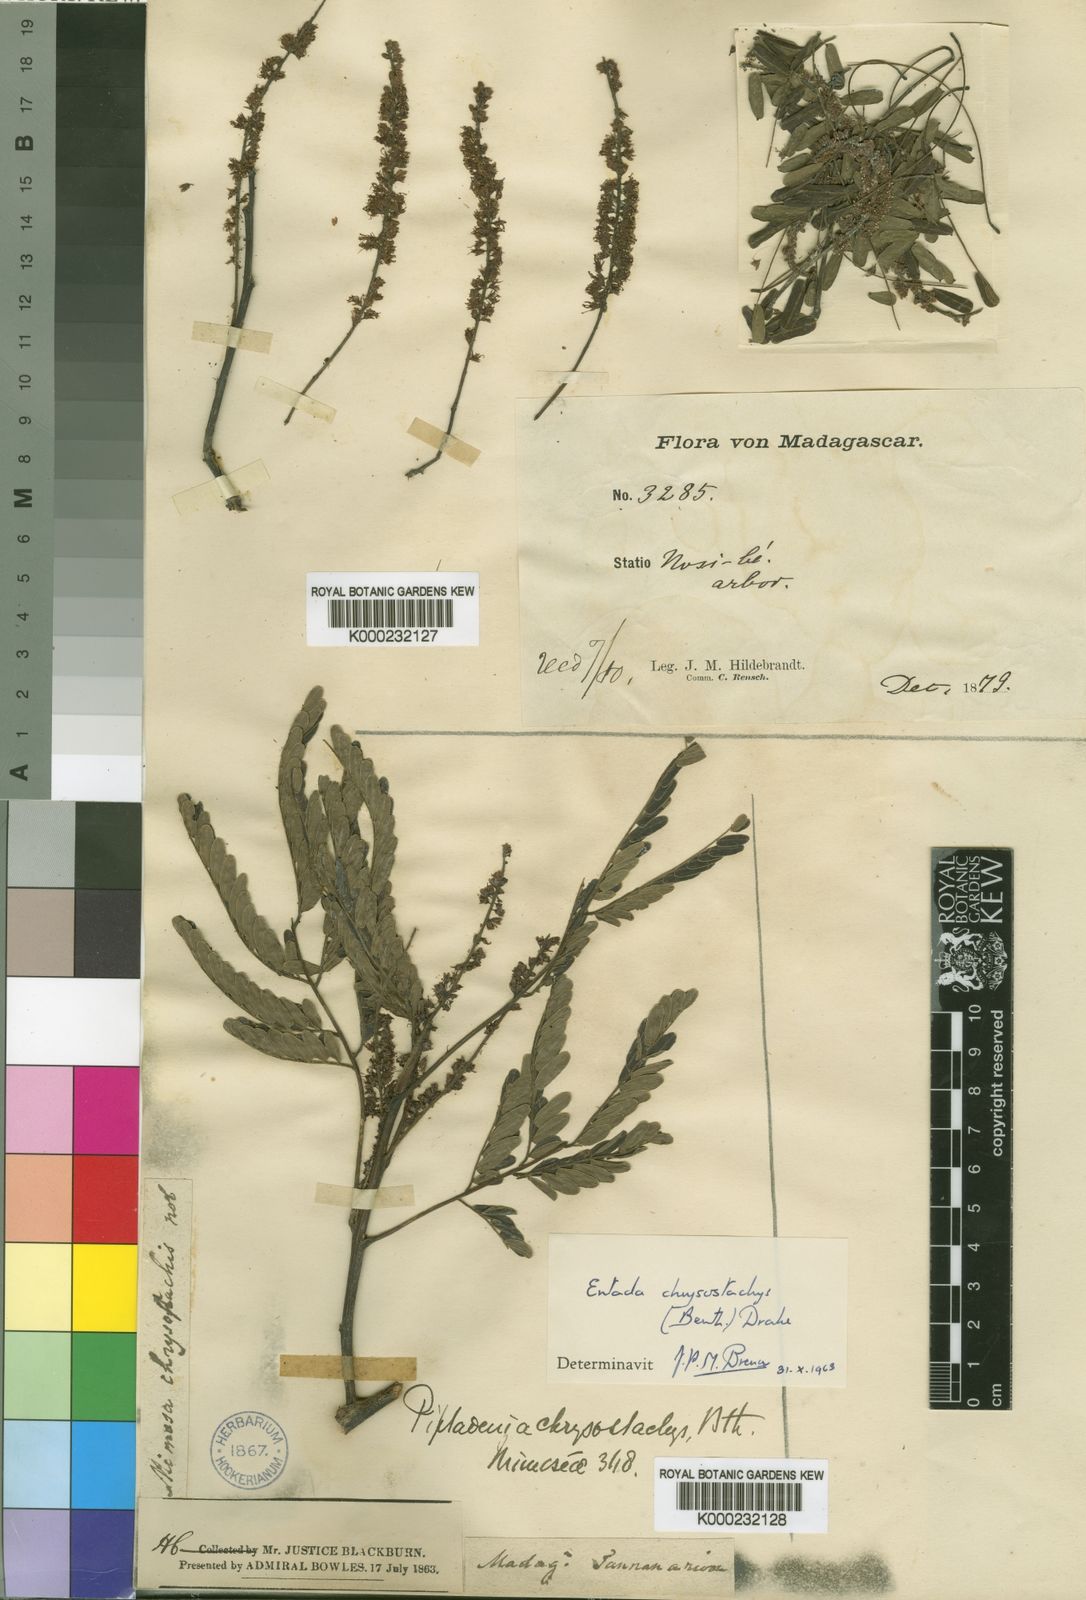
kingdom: Plantae
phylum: Tracheophyta
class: Magnoliopsida
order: Fabales
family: Fabaceae
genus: Entada
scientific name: Entada chrysostachys
